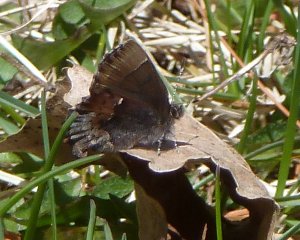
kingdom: Animalia
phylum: Arthropoda
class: Insecta
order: Lepidoptera
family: Lycaenidae
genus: Incisalia
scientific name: Incisalia henrici
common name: Henry's Elfin
